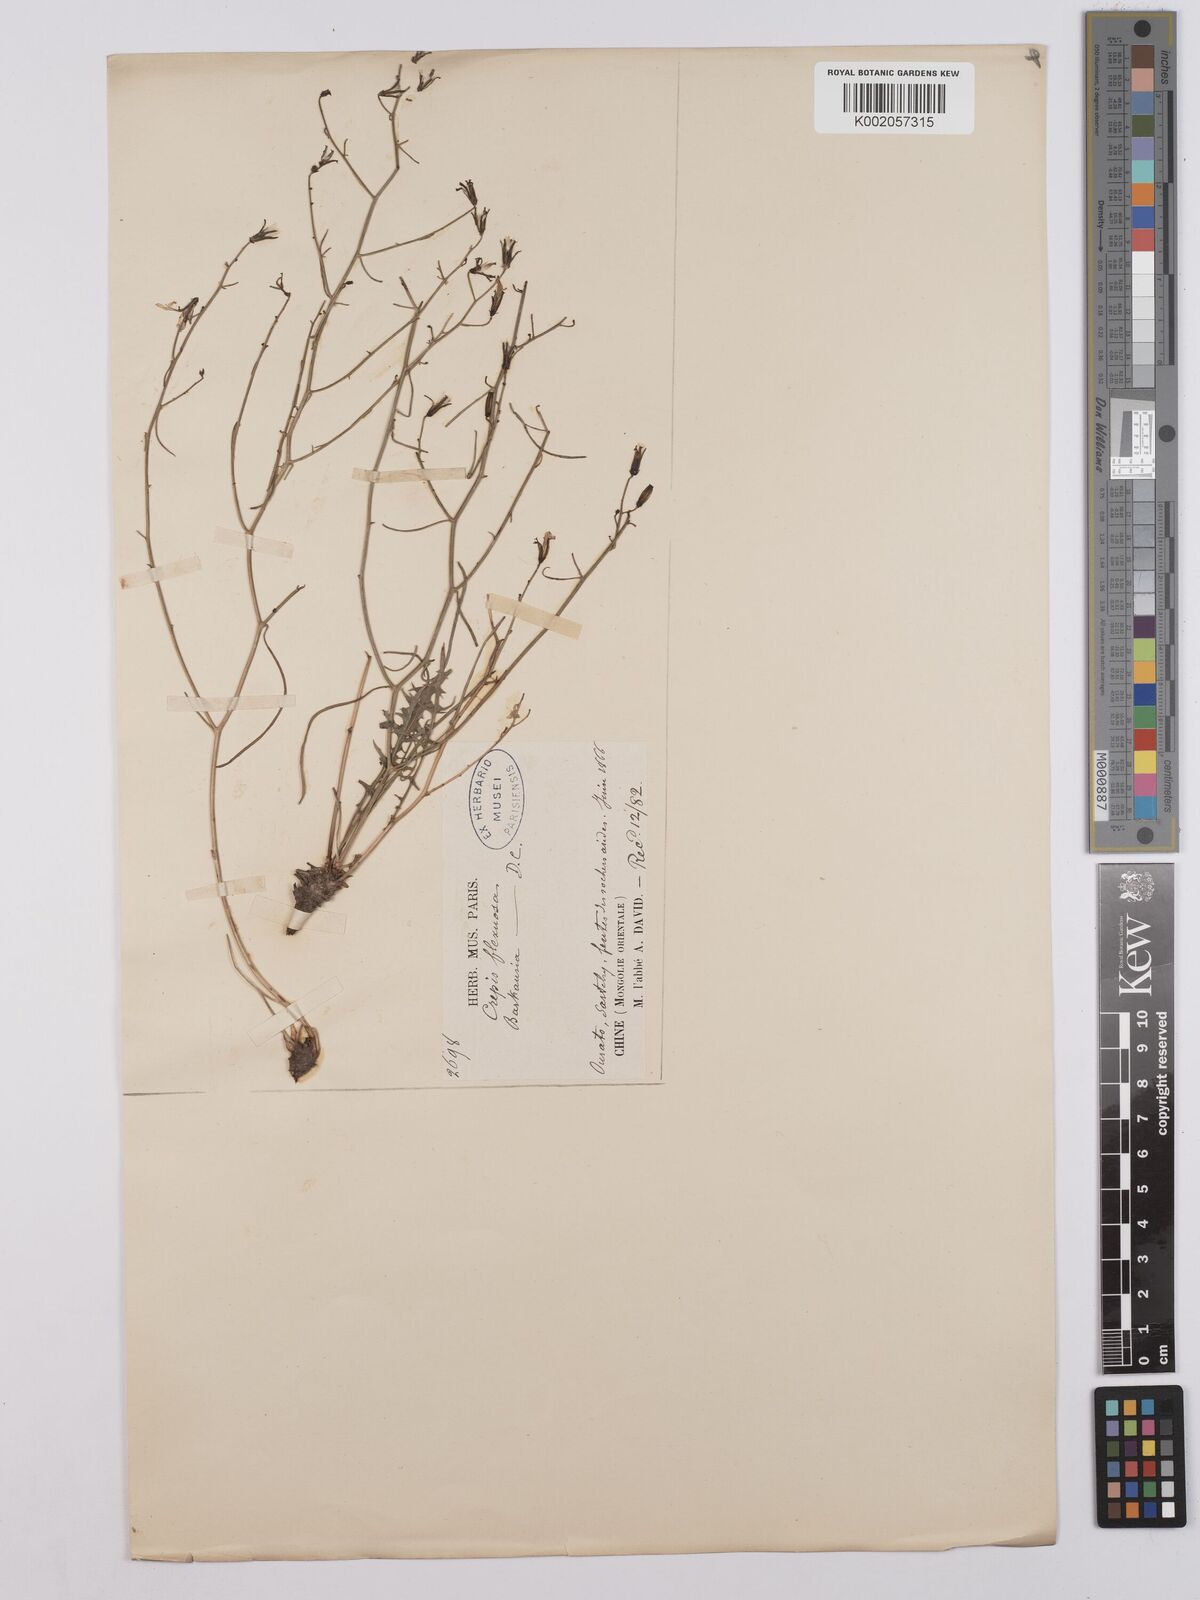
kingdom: Plantae
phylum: Tracheophyta
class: Magnoliopsida
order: Asterales
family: Asteraceae
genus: Crepis
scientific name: Crepis
